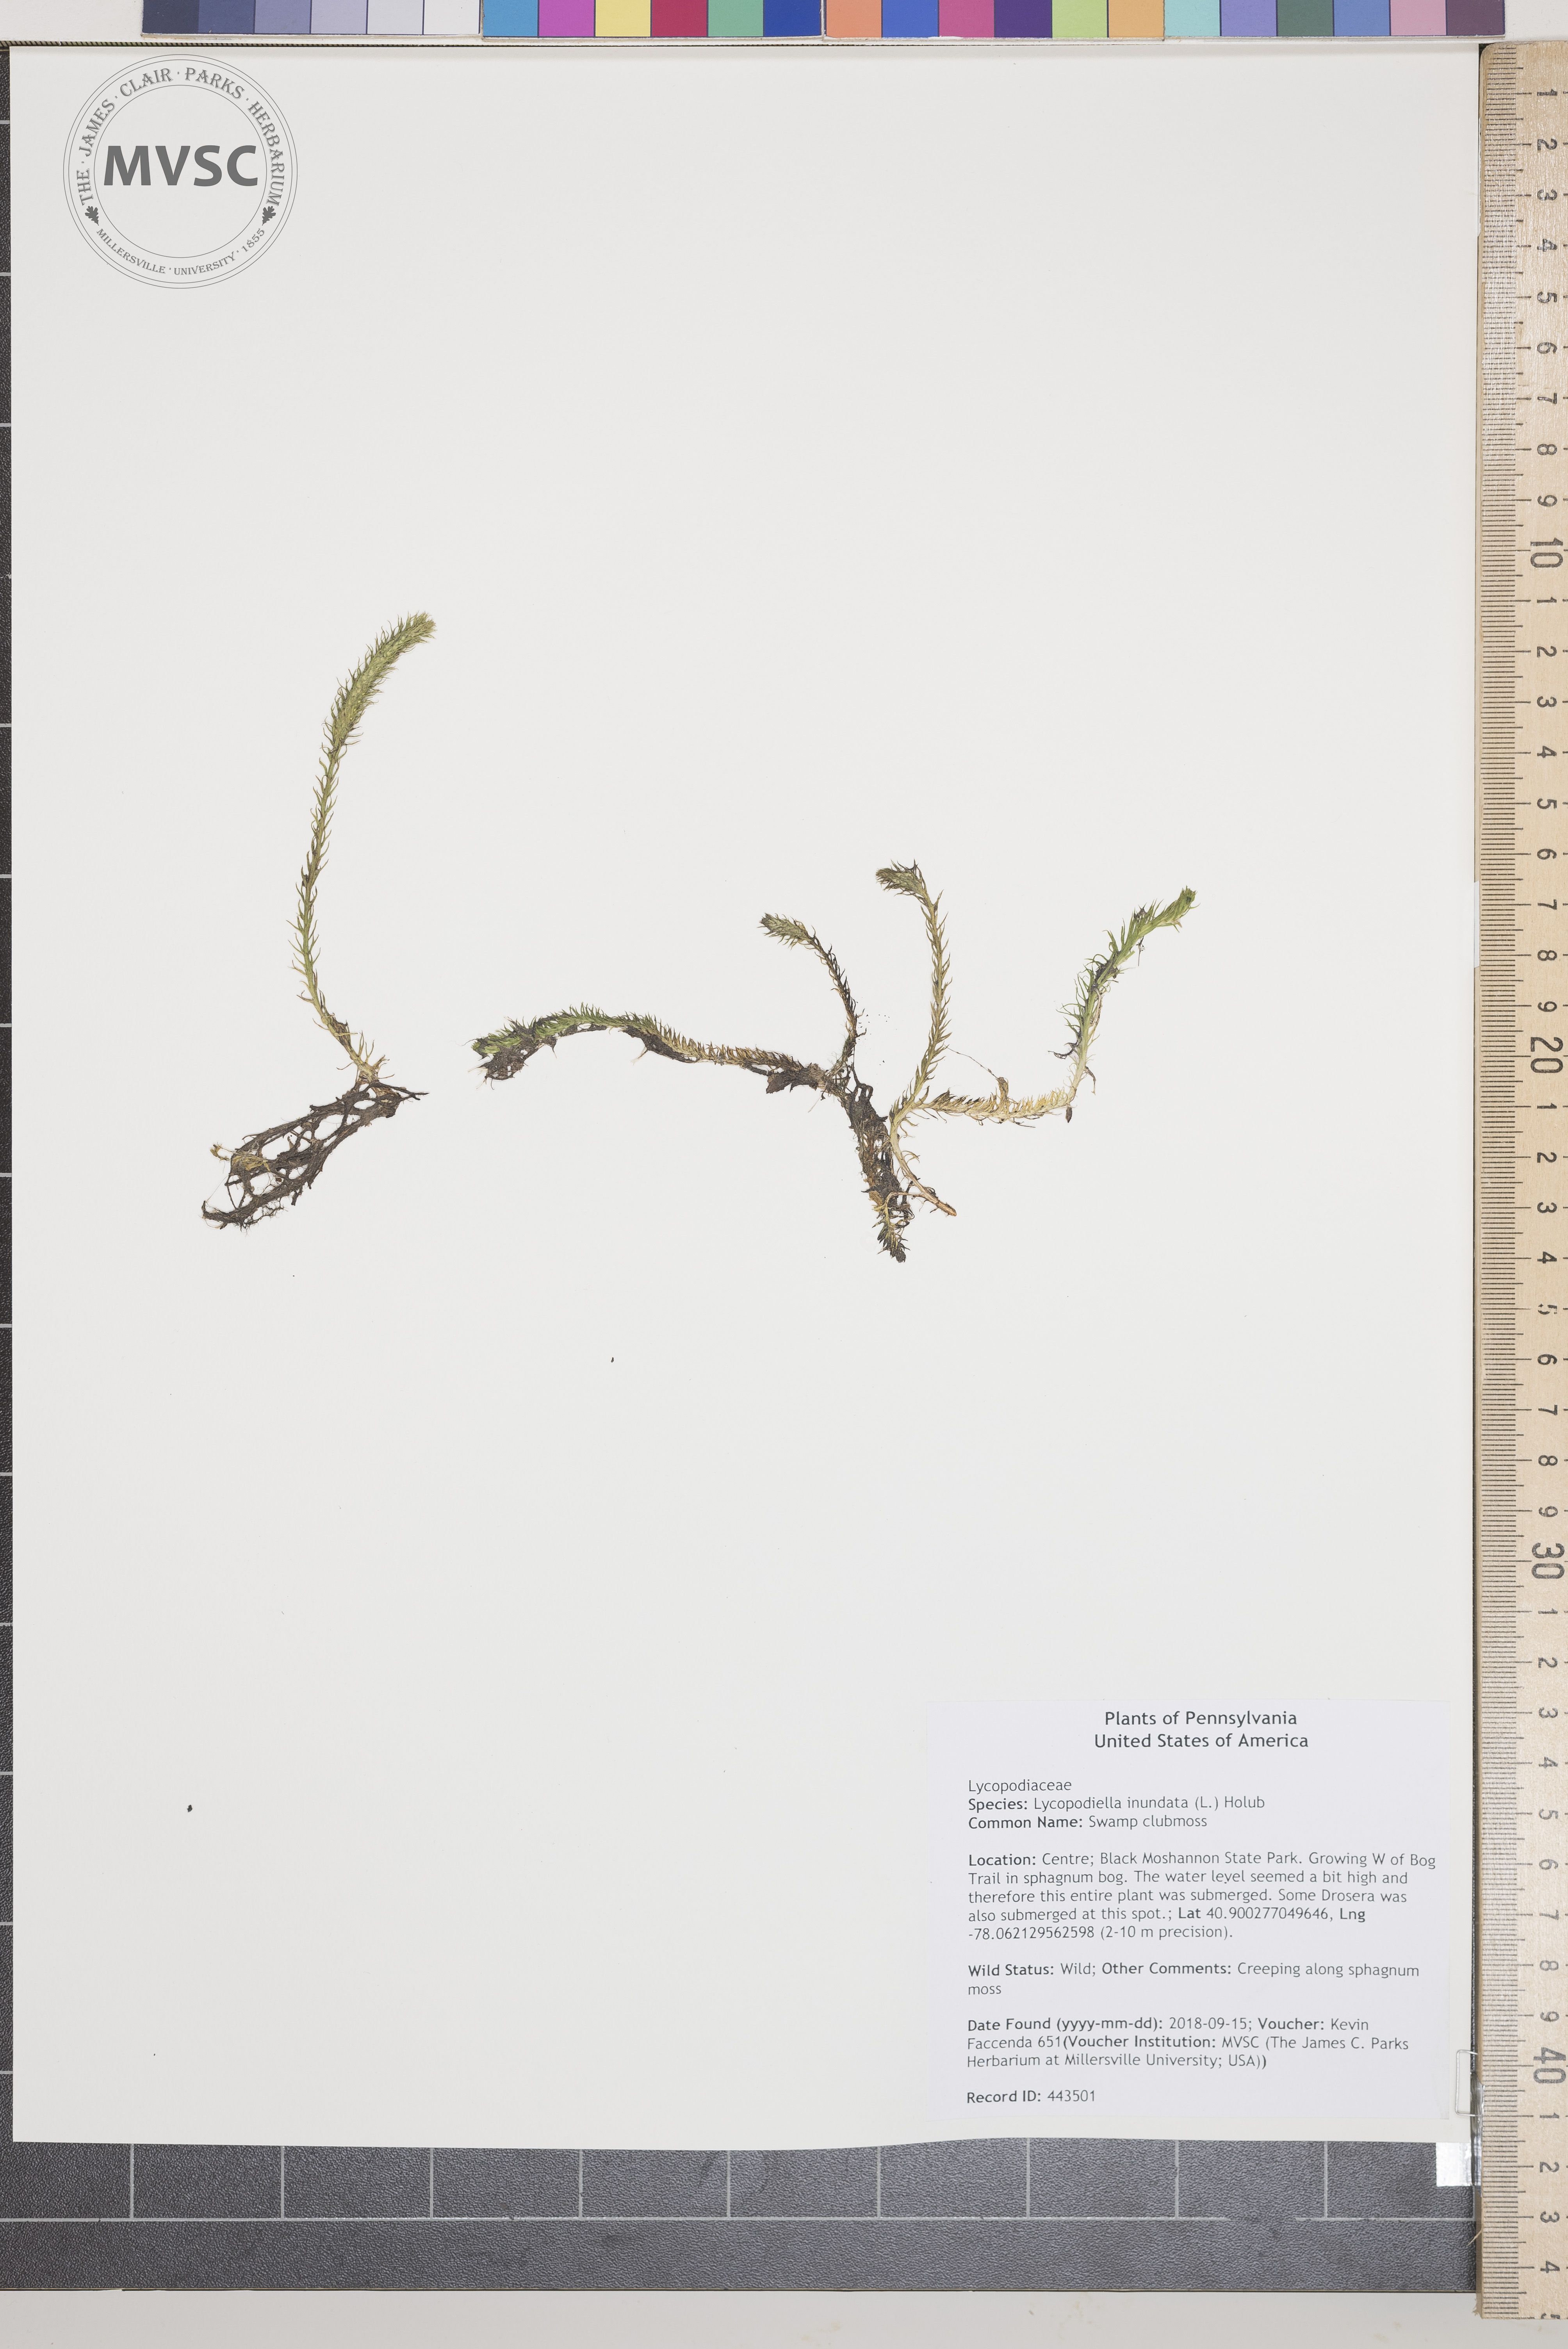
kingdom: Plantae
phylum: Tracheophyta
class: Lycopodiopsida
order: Lycopodiales
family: Lycopodiaceae
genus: Lycopodiella
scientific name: Lycopodiella inundata
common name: Swamp clubmoss
